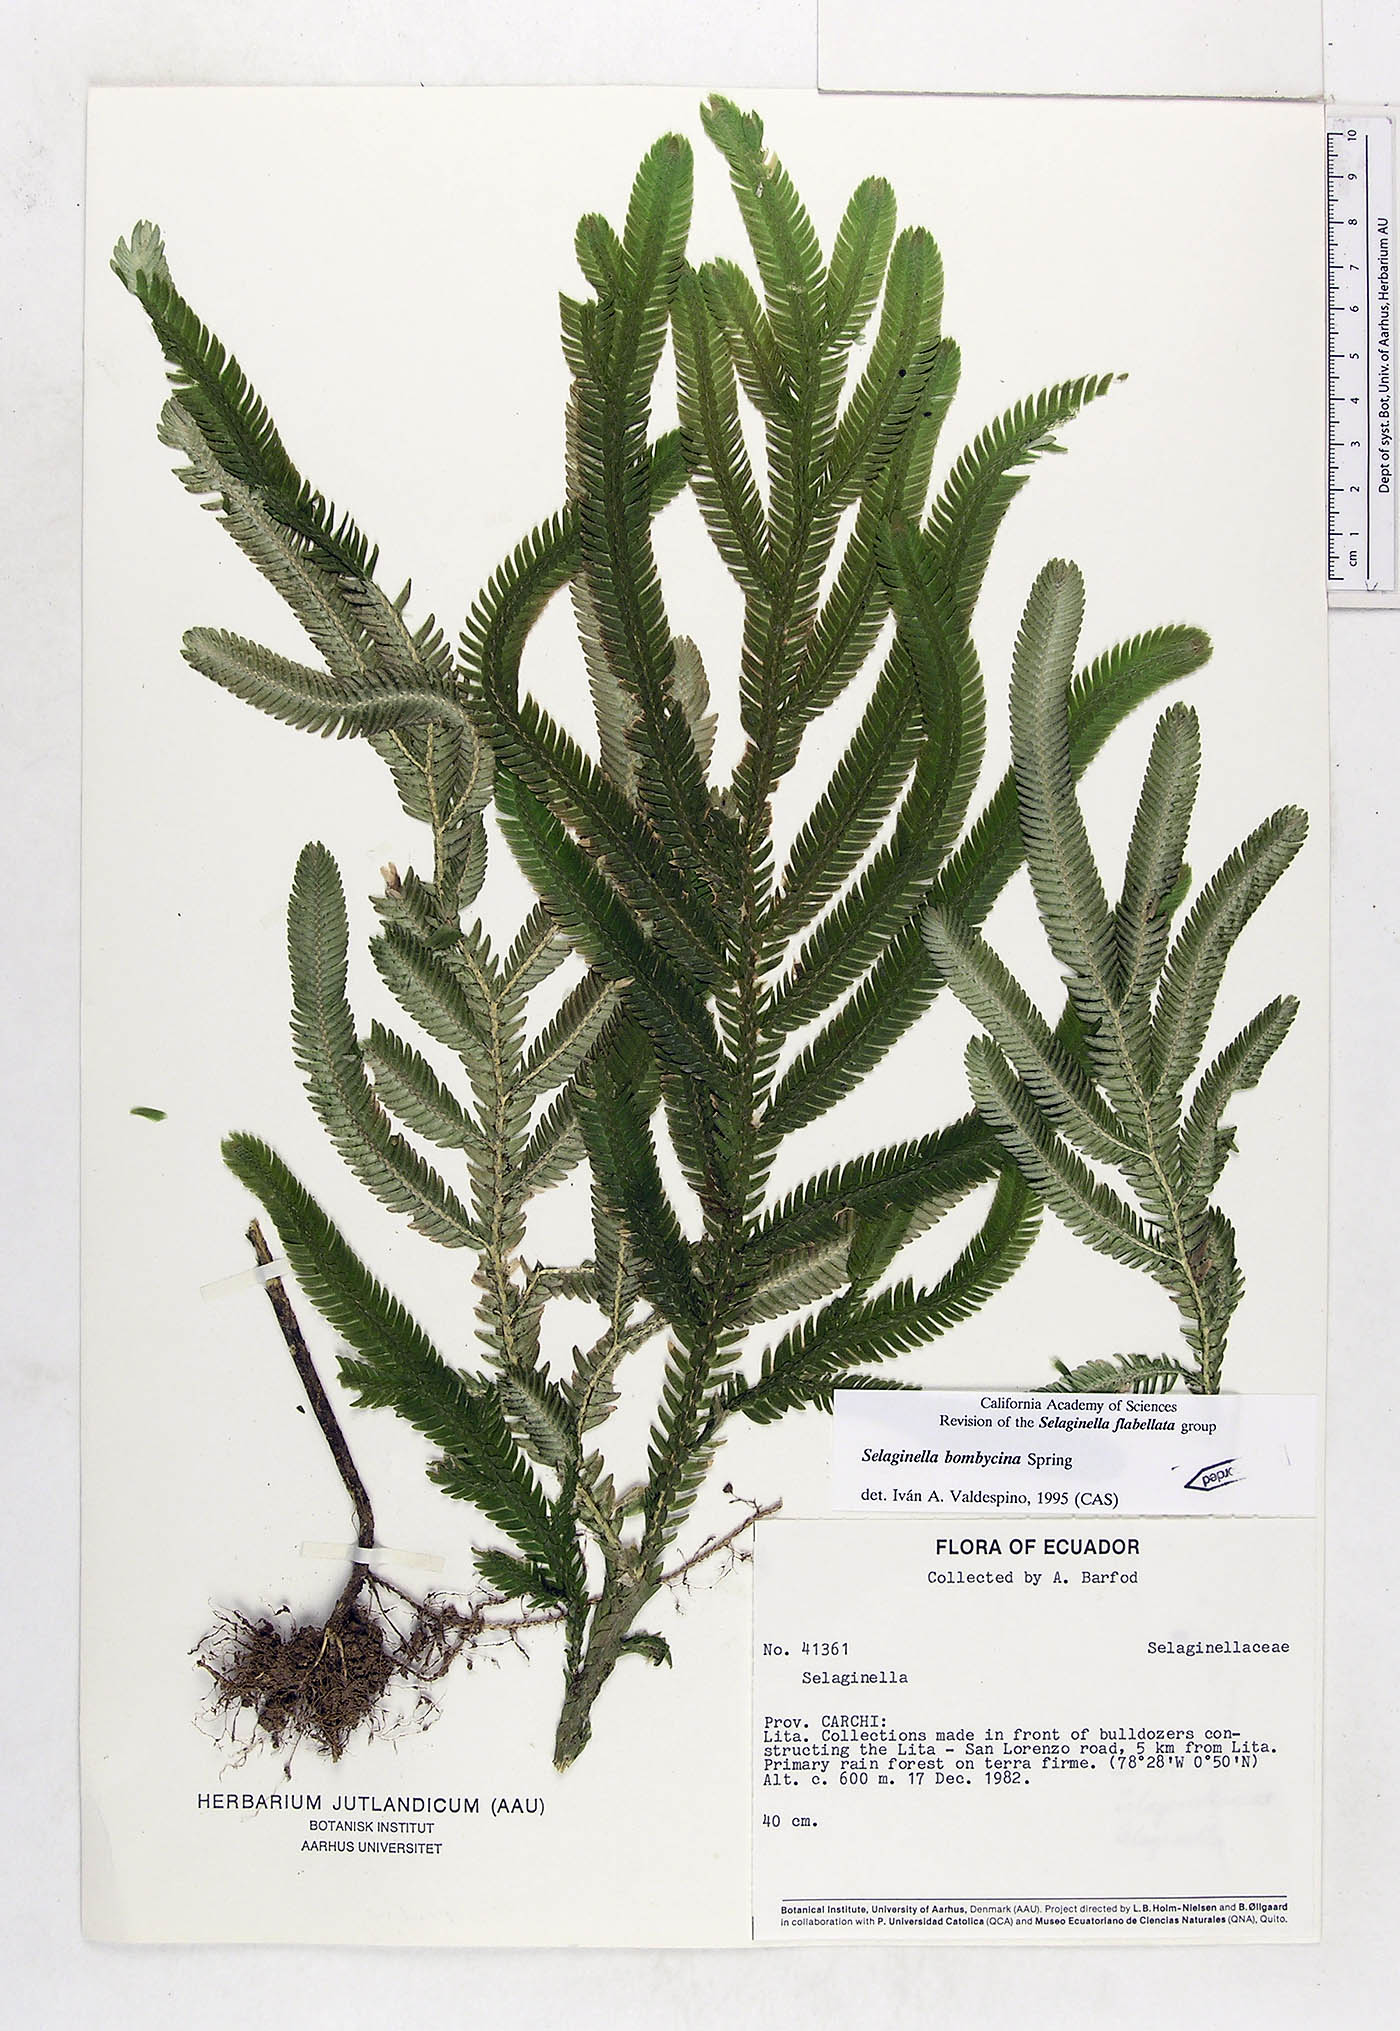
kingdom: Plantae
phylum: Tracheophyta
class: Lycopodiopsida
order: Selaginellales
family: Selaginellaceae
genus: Selaginella
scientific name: Selaginella bombycina
